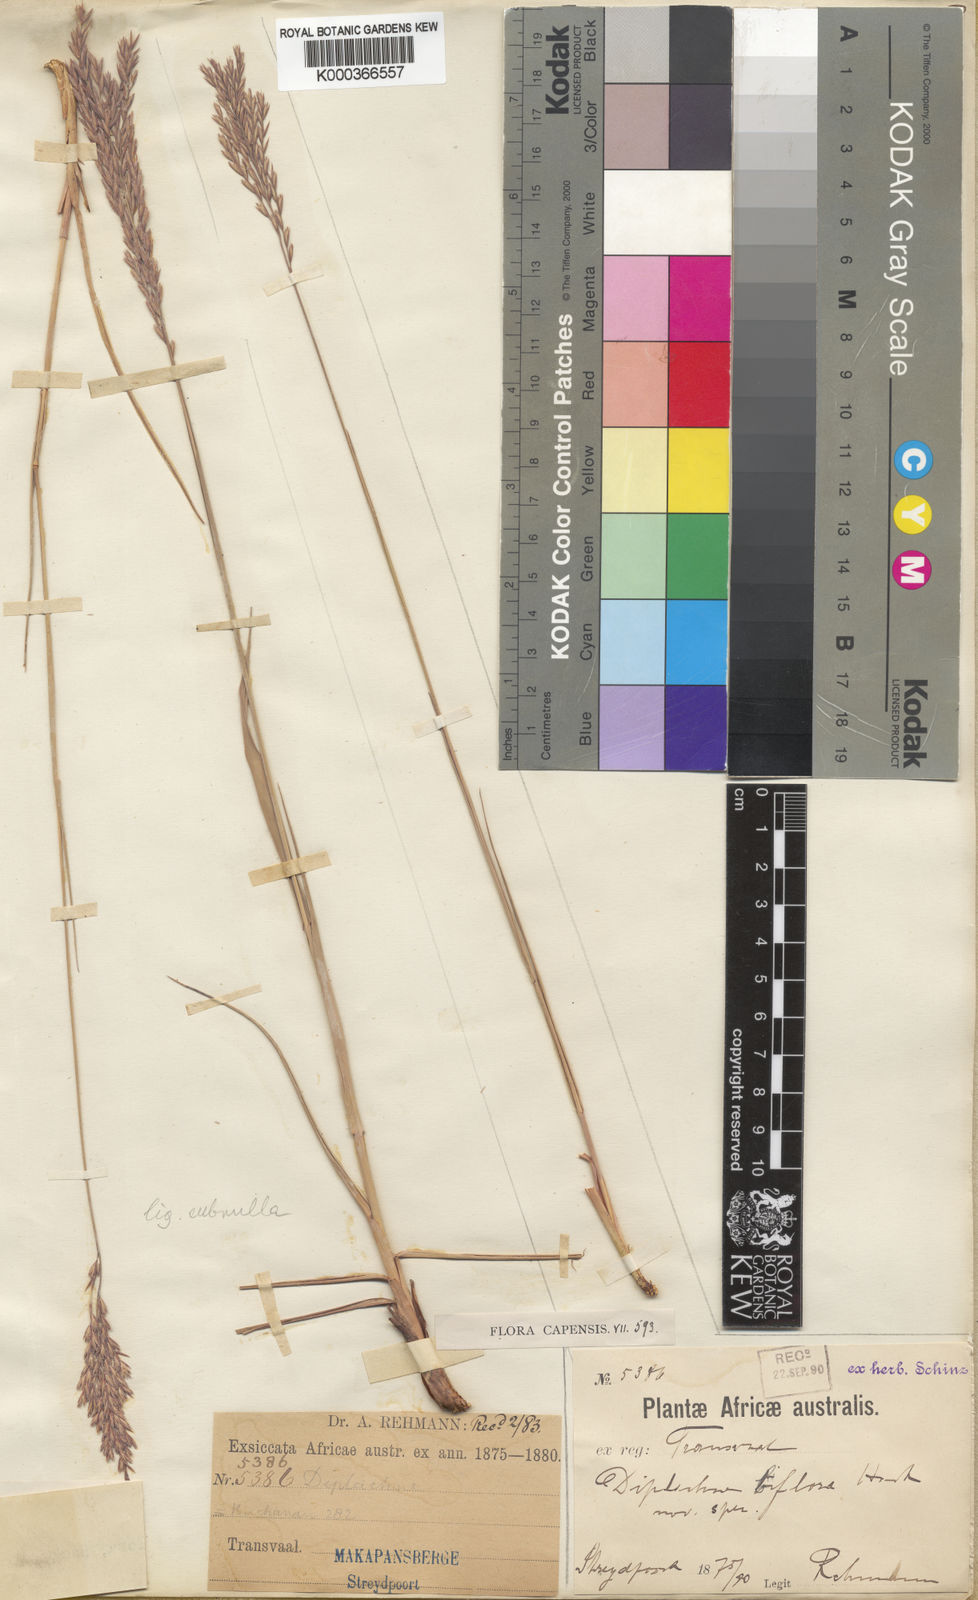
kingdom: Plantae
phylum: Tracheophyta
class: Liliopsida
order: Poales
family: Poaceae
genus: Bewsia
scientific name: Bewsia biflora
